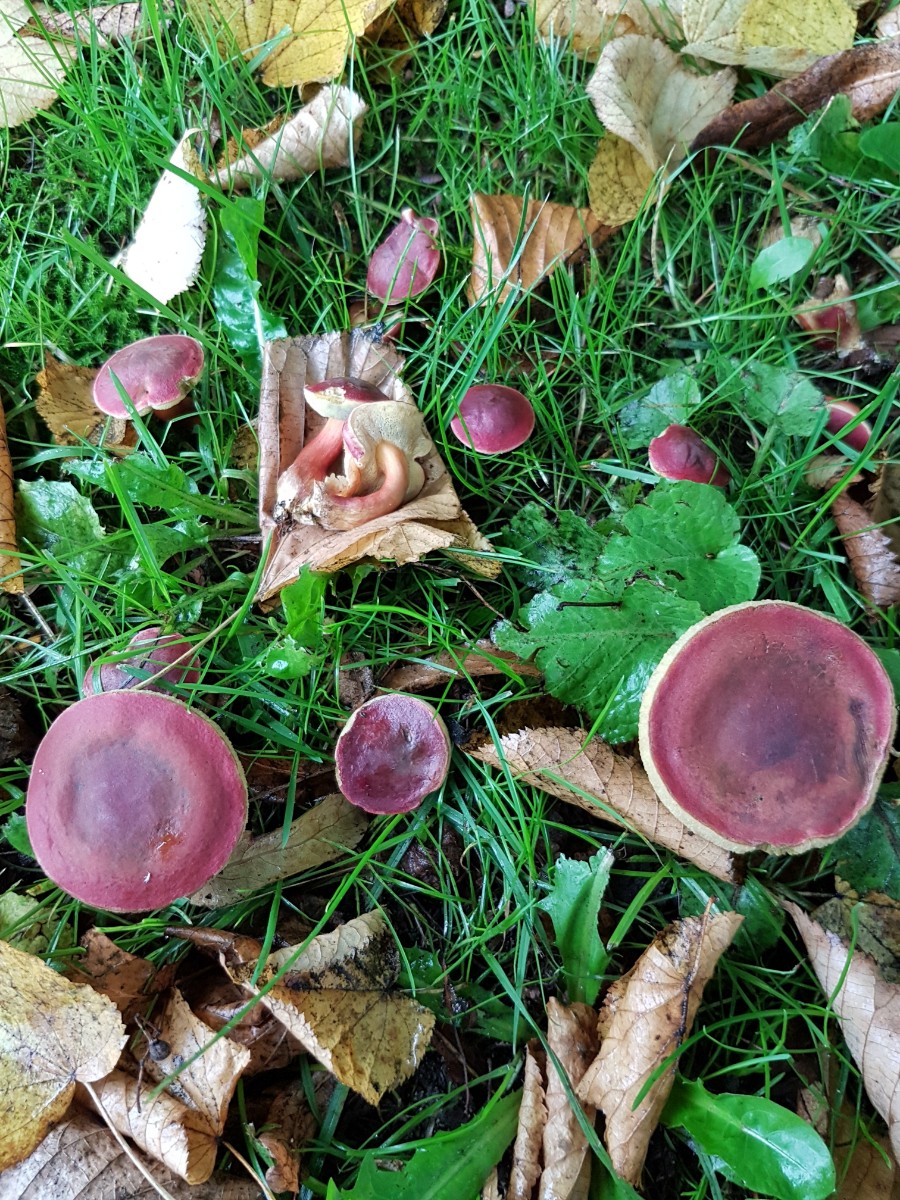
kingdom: Fungi
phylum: Basidiomycota
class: Agaricomycetes
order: Boletales
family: Boletaceae
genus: Hortiboletus
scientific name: Hortiboletus rubellus
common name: blodrød rørhat
